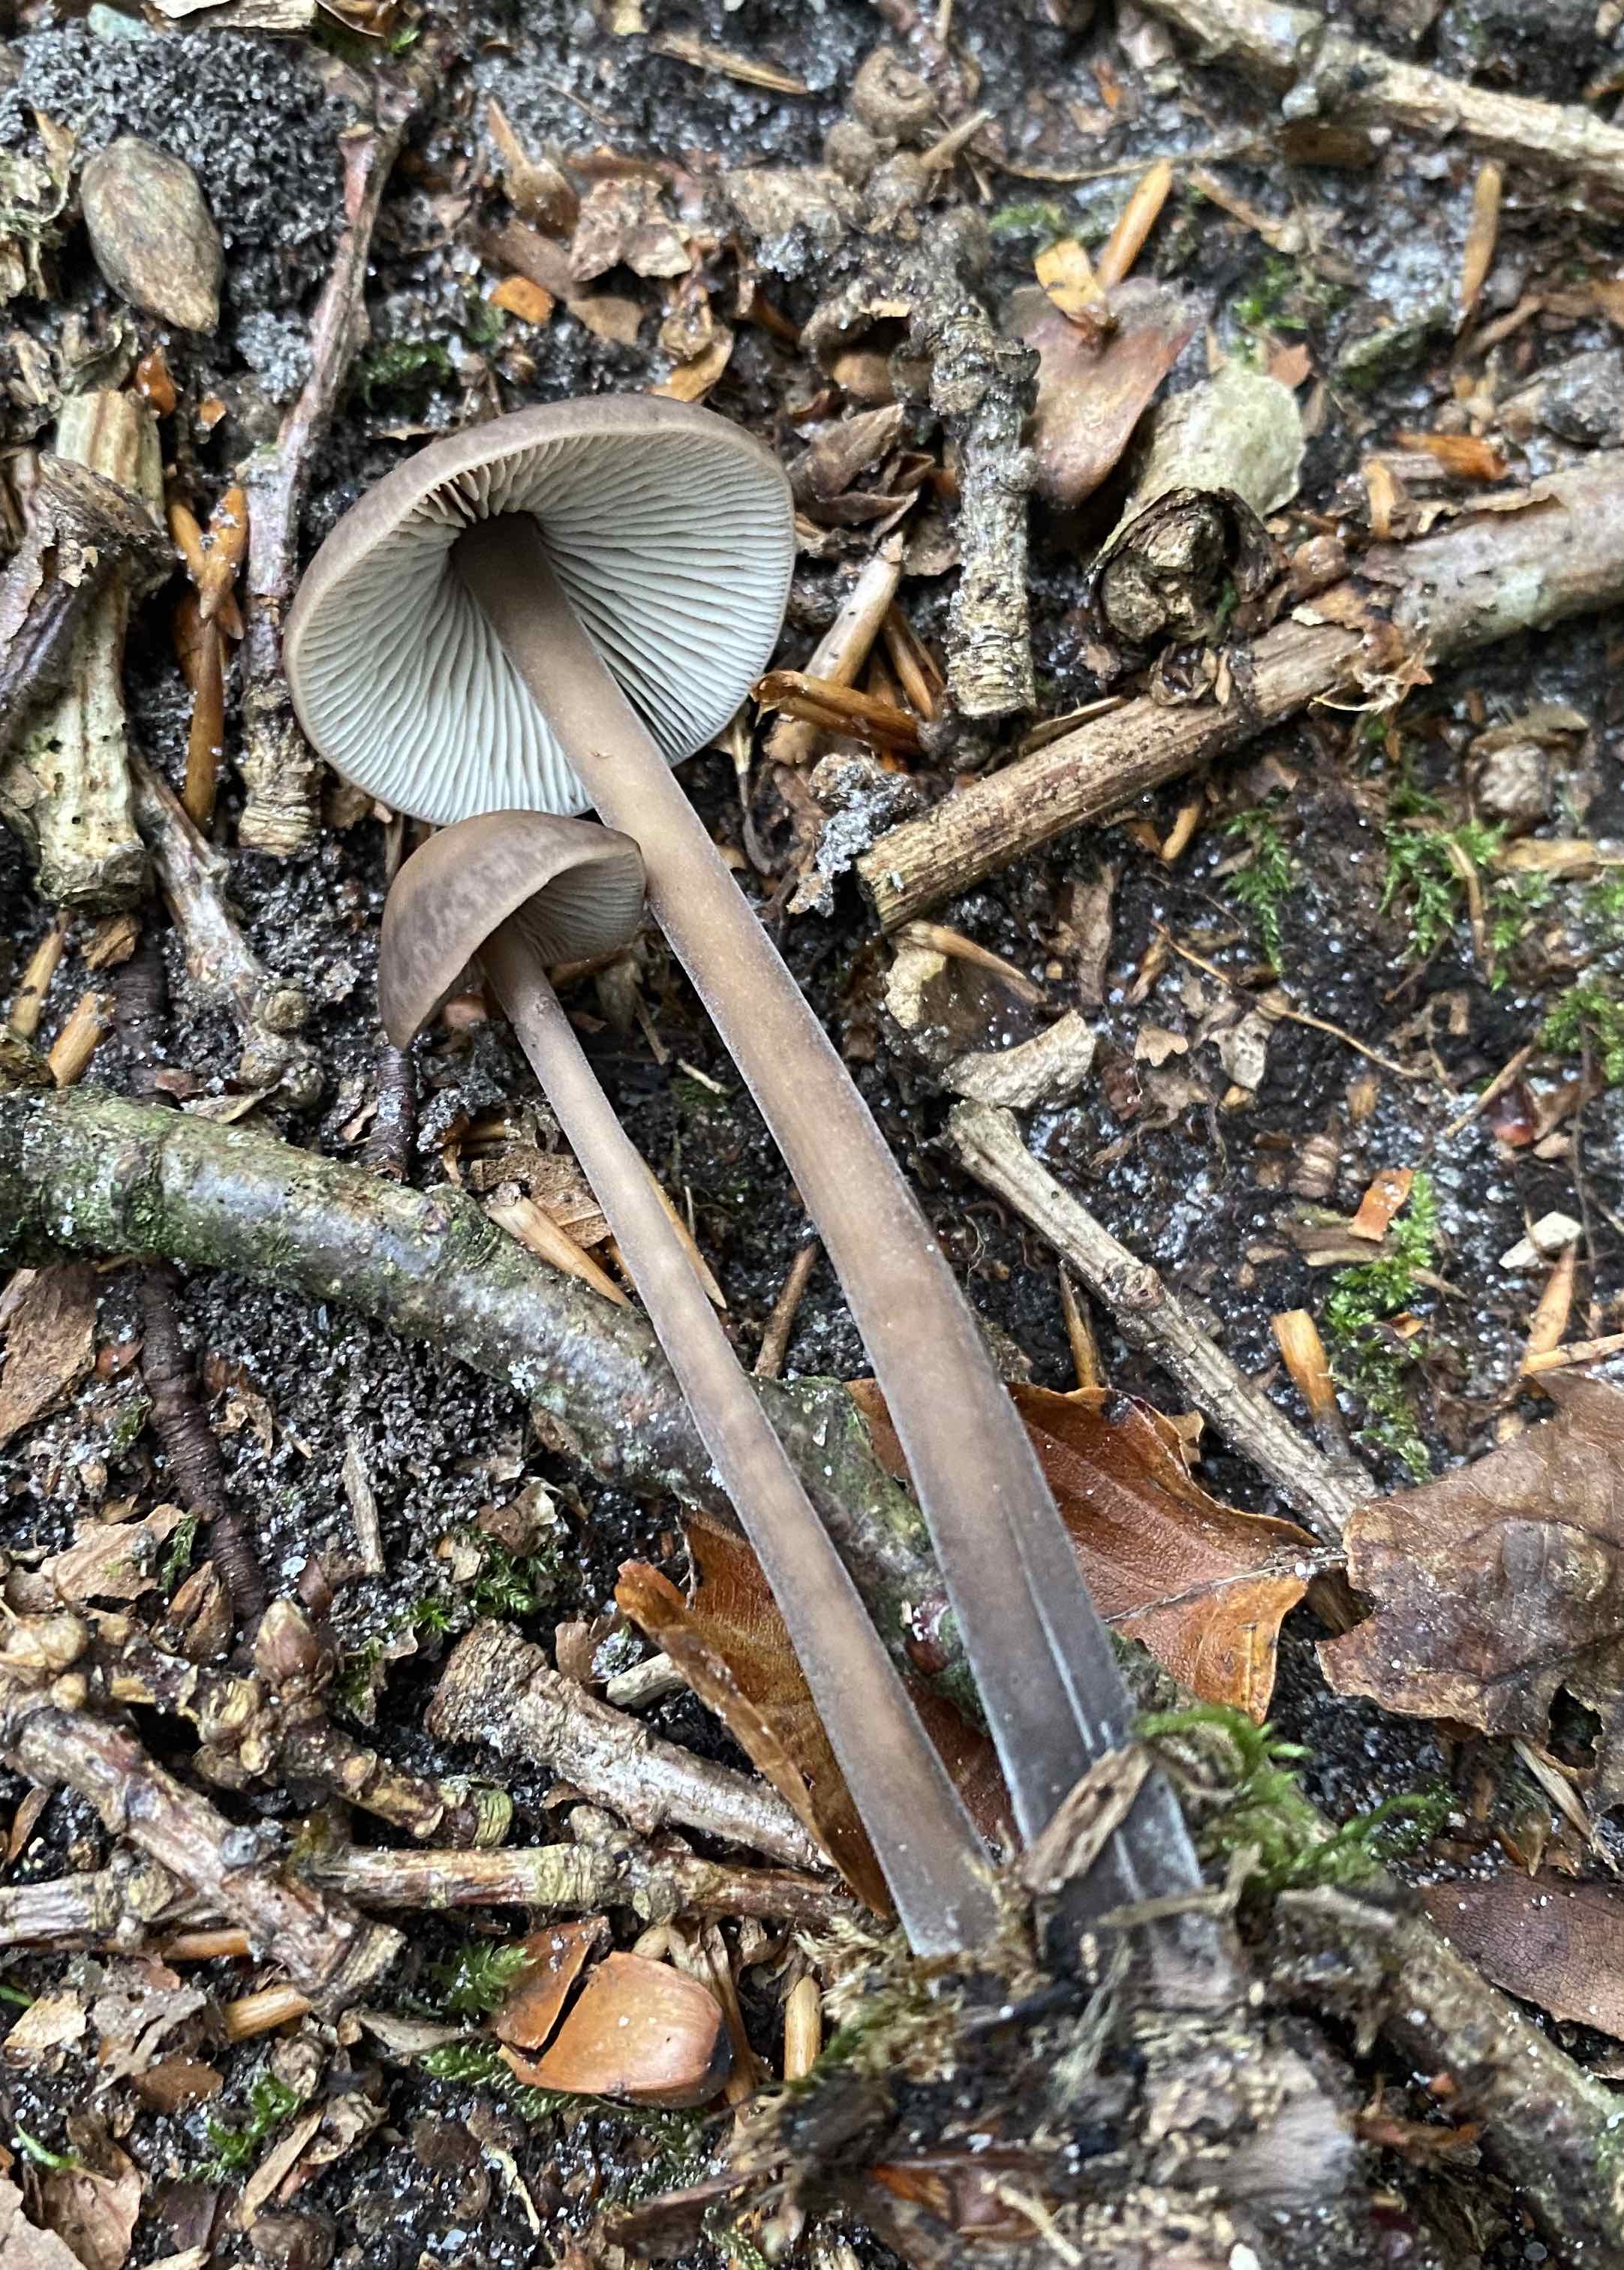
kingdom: Fungi
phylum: Basidiomycota
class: Agaricomycetes
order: Agaricales
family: Omphalotaceae
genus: Mycetinis
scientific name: Mycetinis alliaceus
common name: stor løghat
